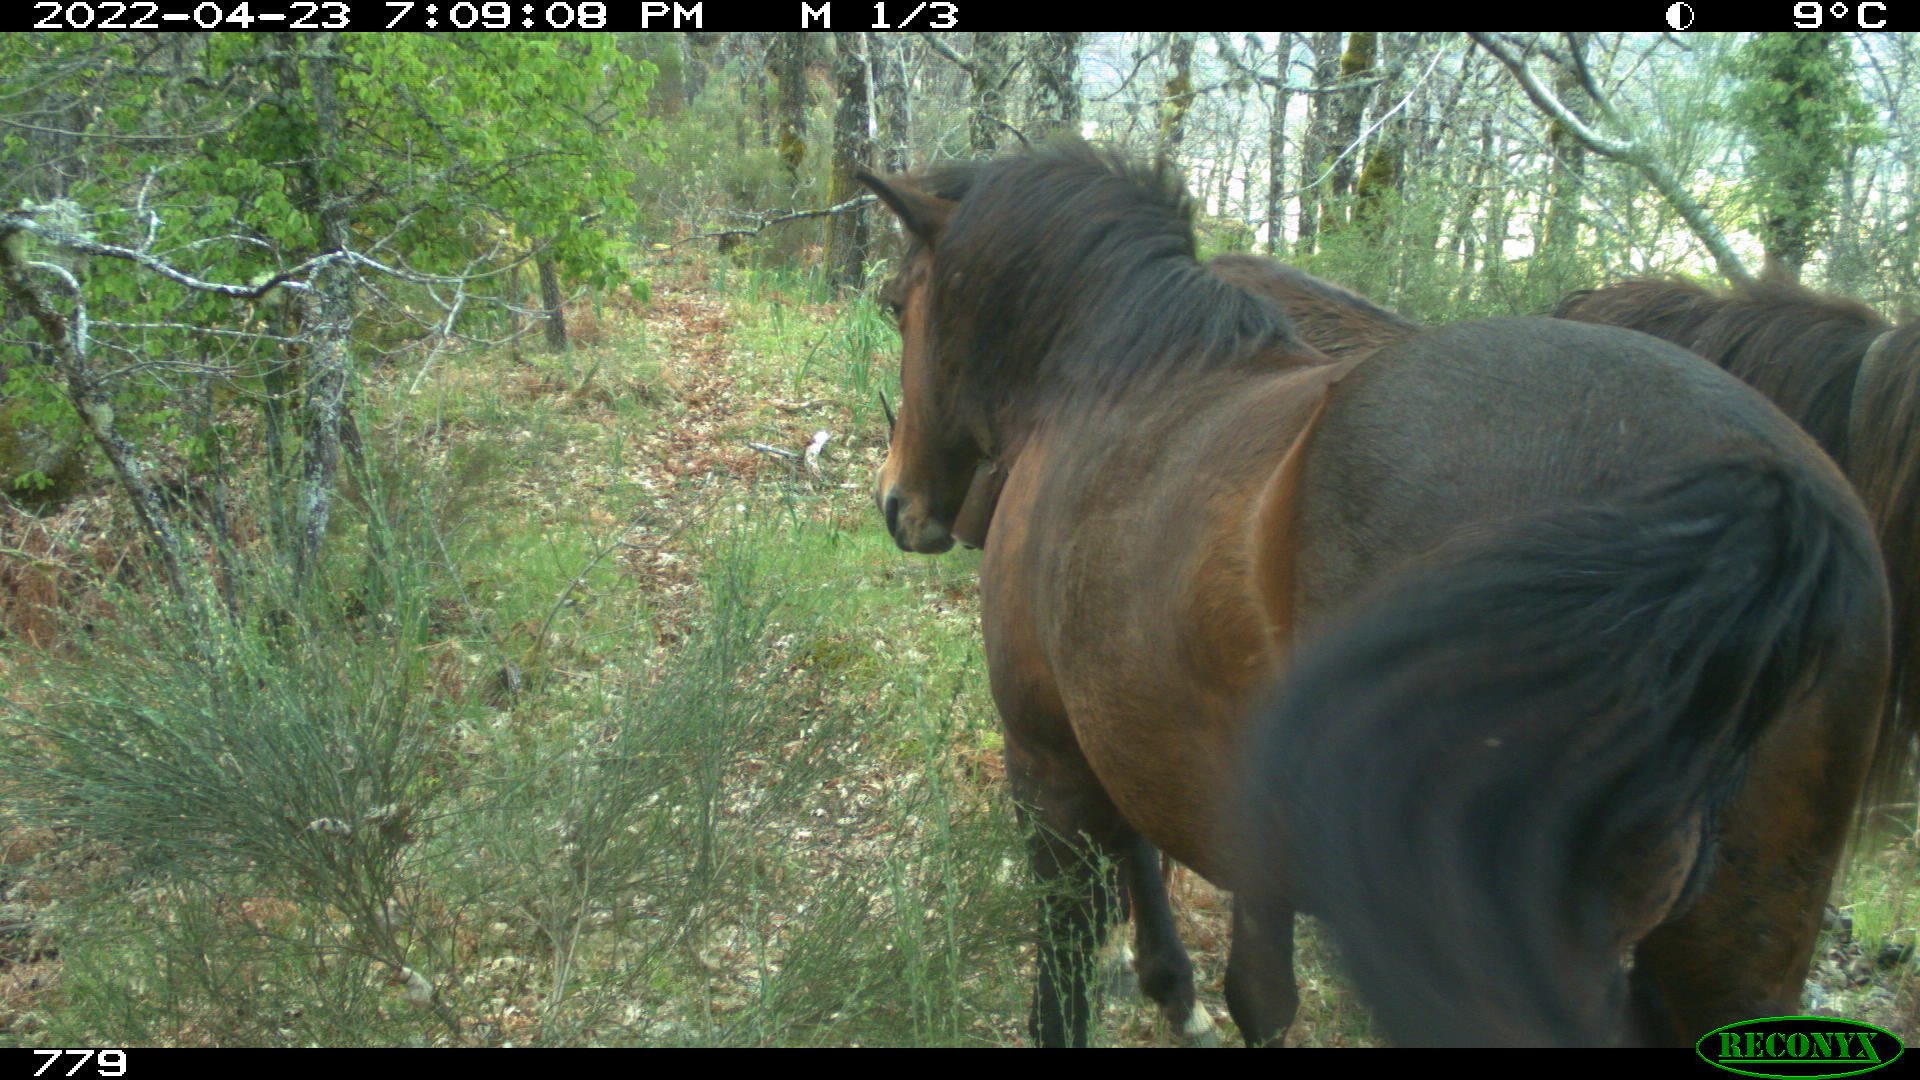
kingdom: Animalia
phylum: Chordata
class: Mammalia
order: Perissodactyla
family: Equidae
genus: Equus
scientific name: Equus caballus
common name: Horse
